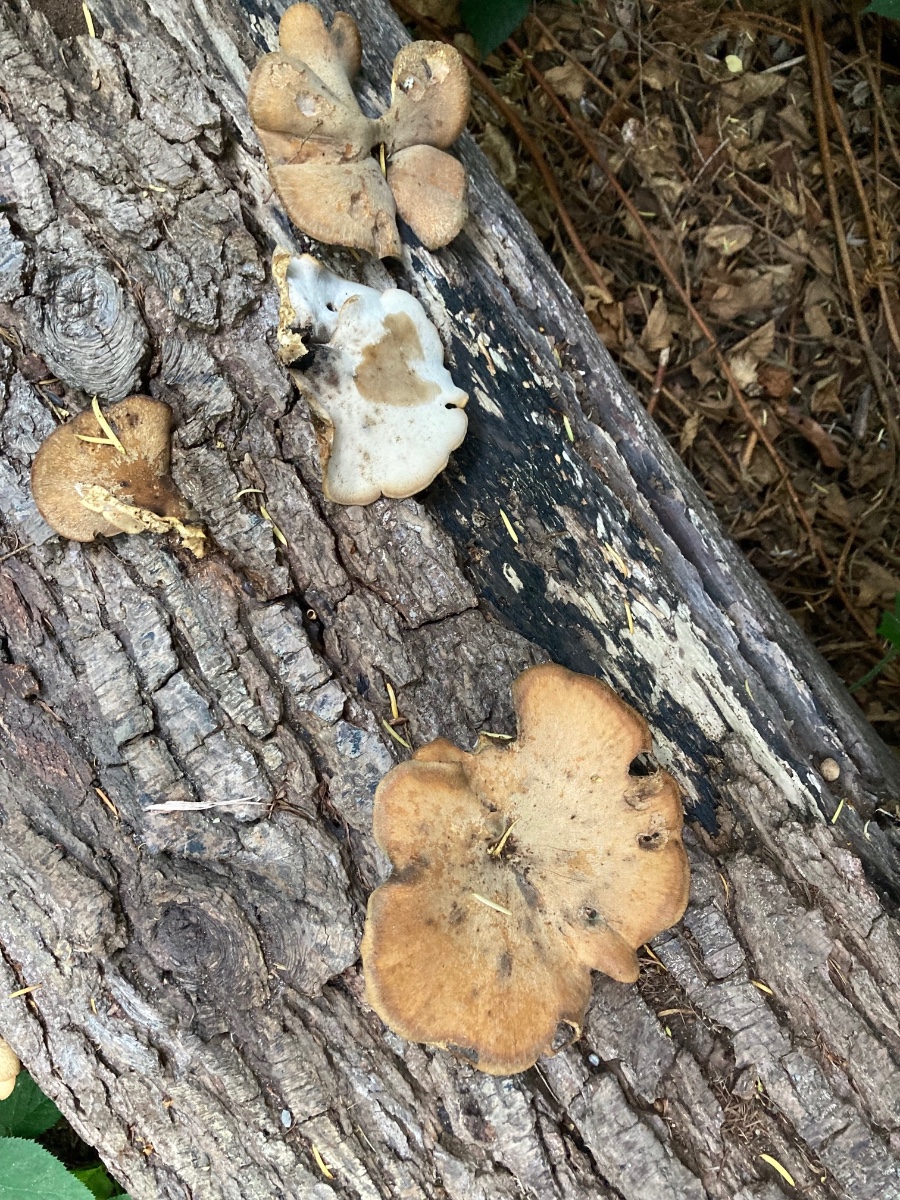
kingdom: Fungi
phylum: Basidiomycota
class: Agaricomycetes
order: Polyporales
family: Polyporaceae
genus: Cerioporus
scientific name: Cerioporus varius
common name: foranderlig stilkporesvamp
